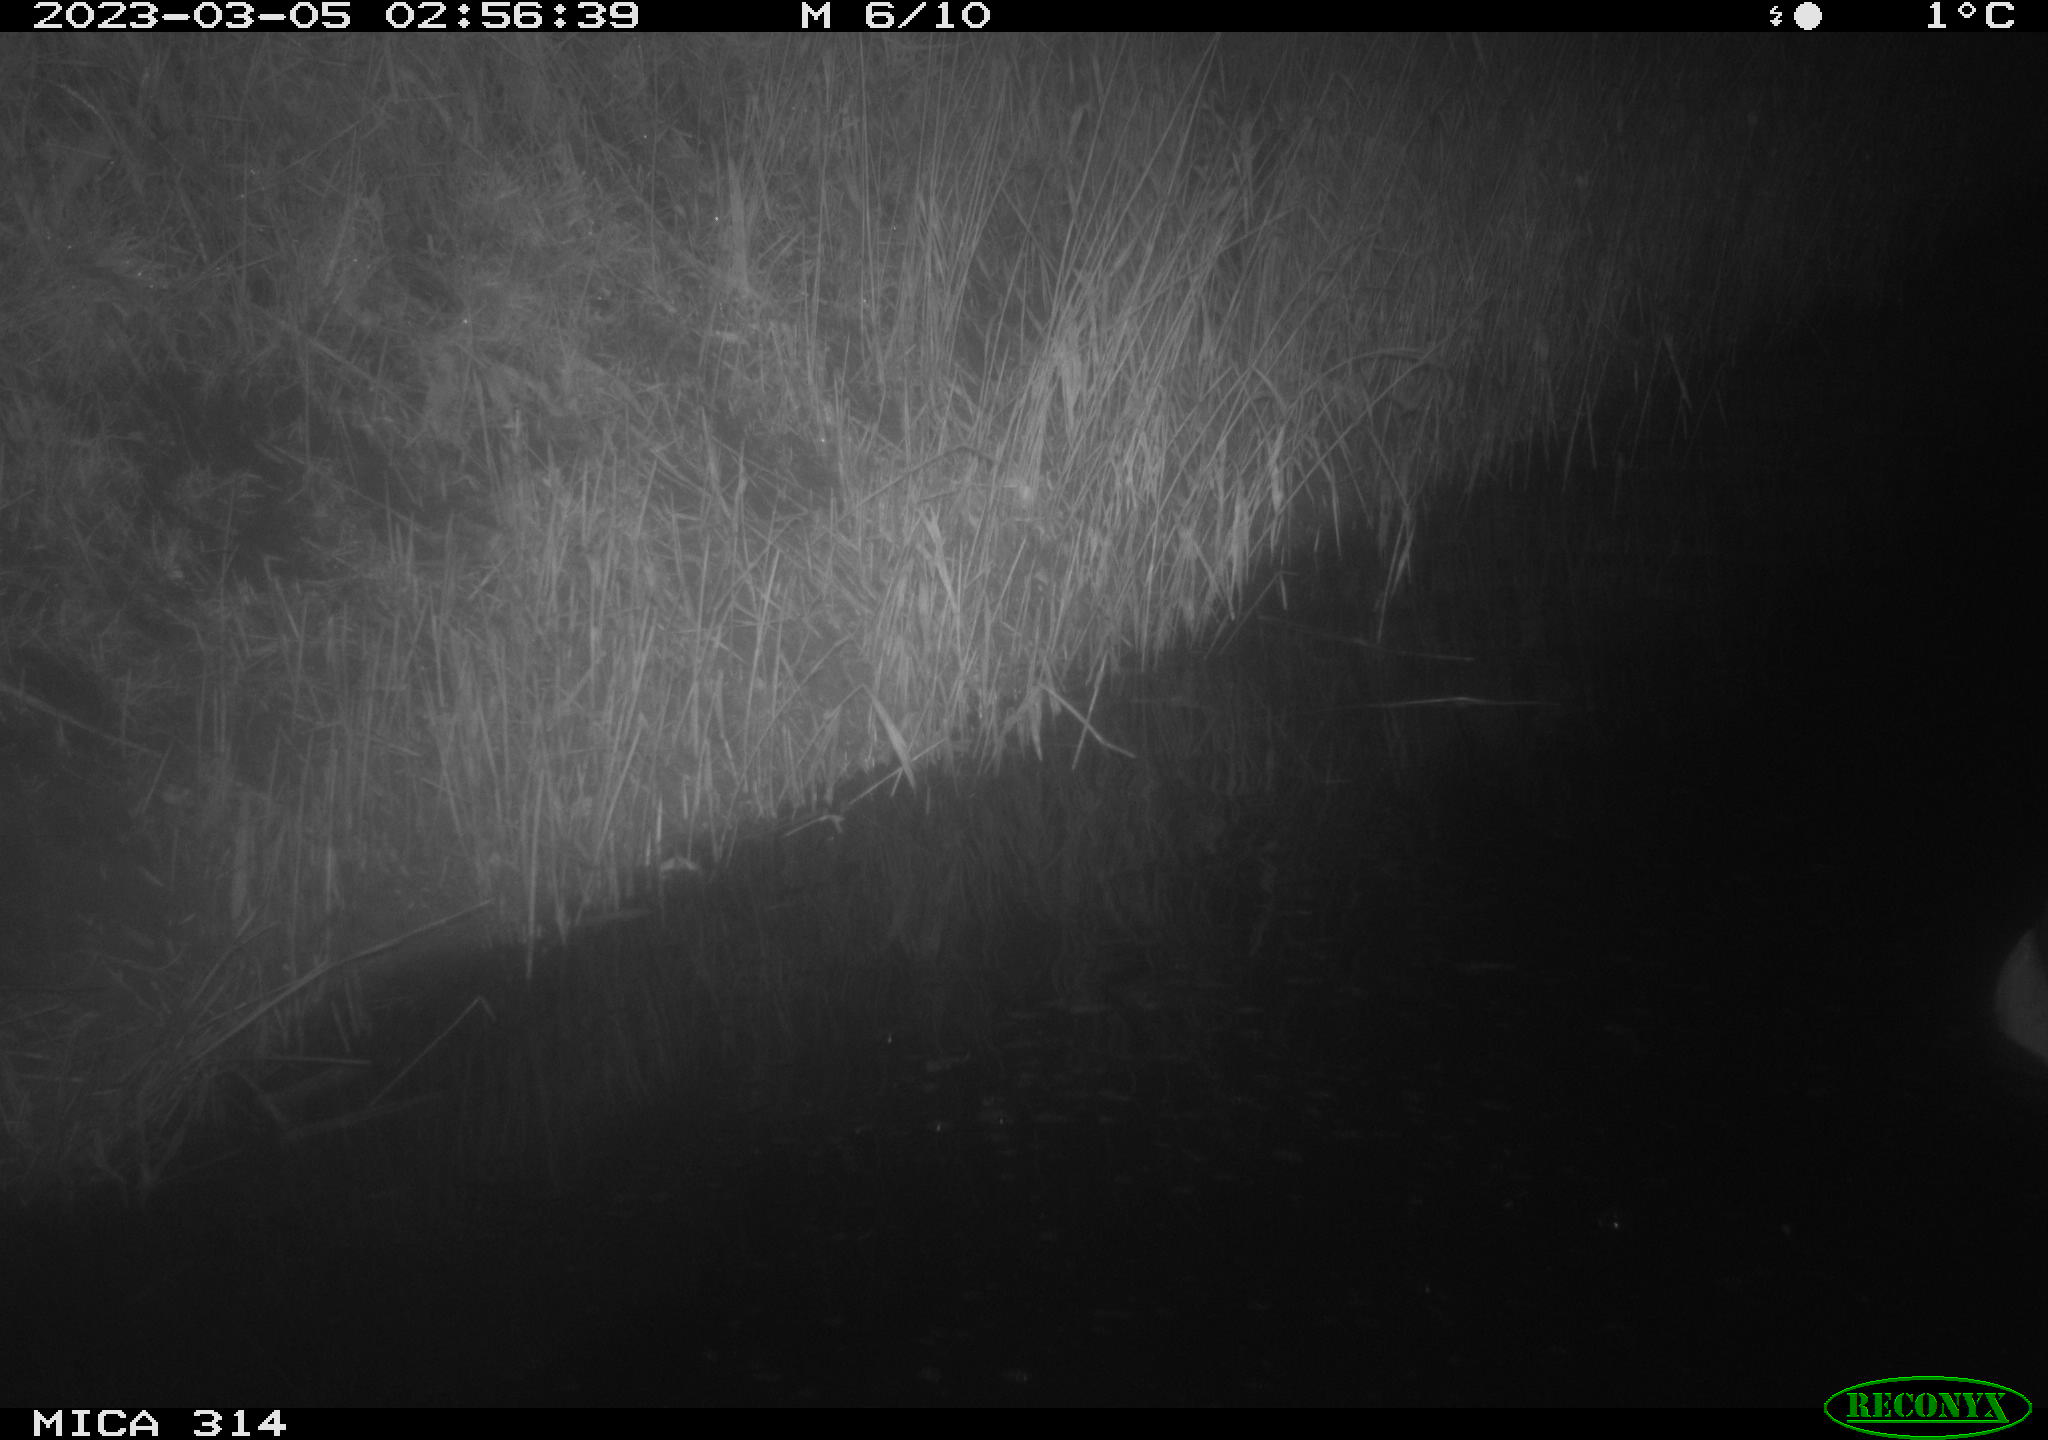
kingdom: Animalia
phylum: Chordata
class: Mammalia
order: Rodentia
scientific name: Rodentia
